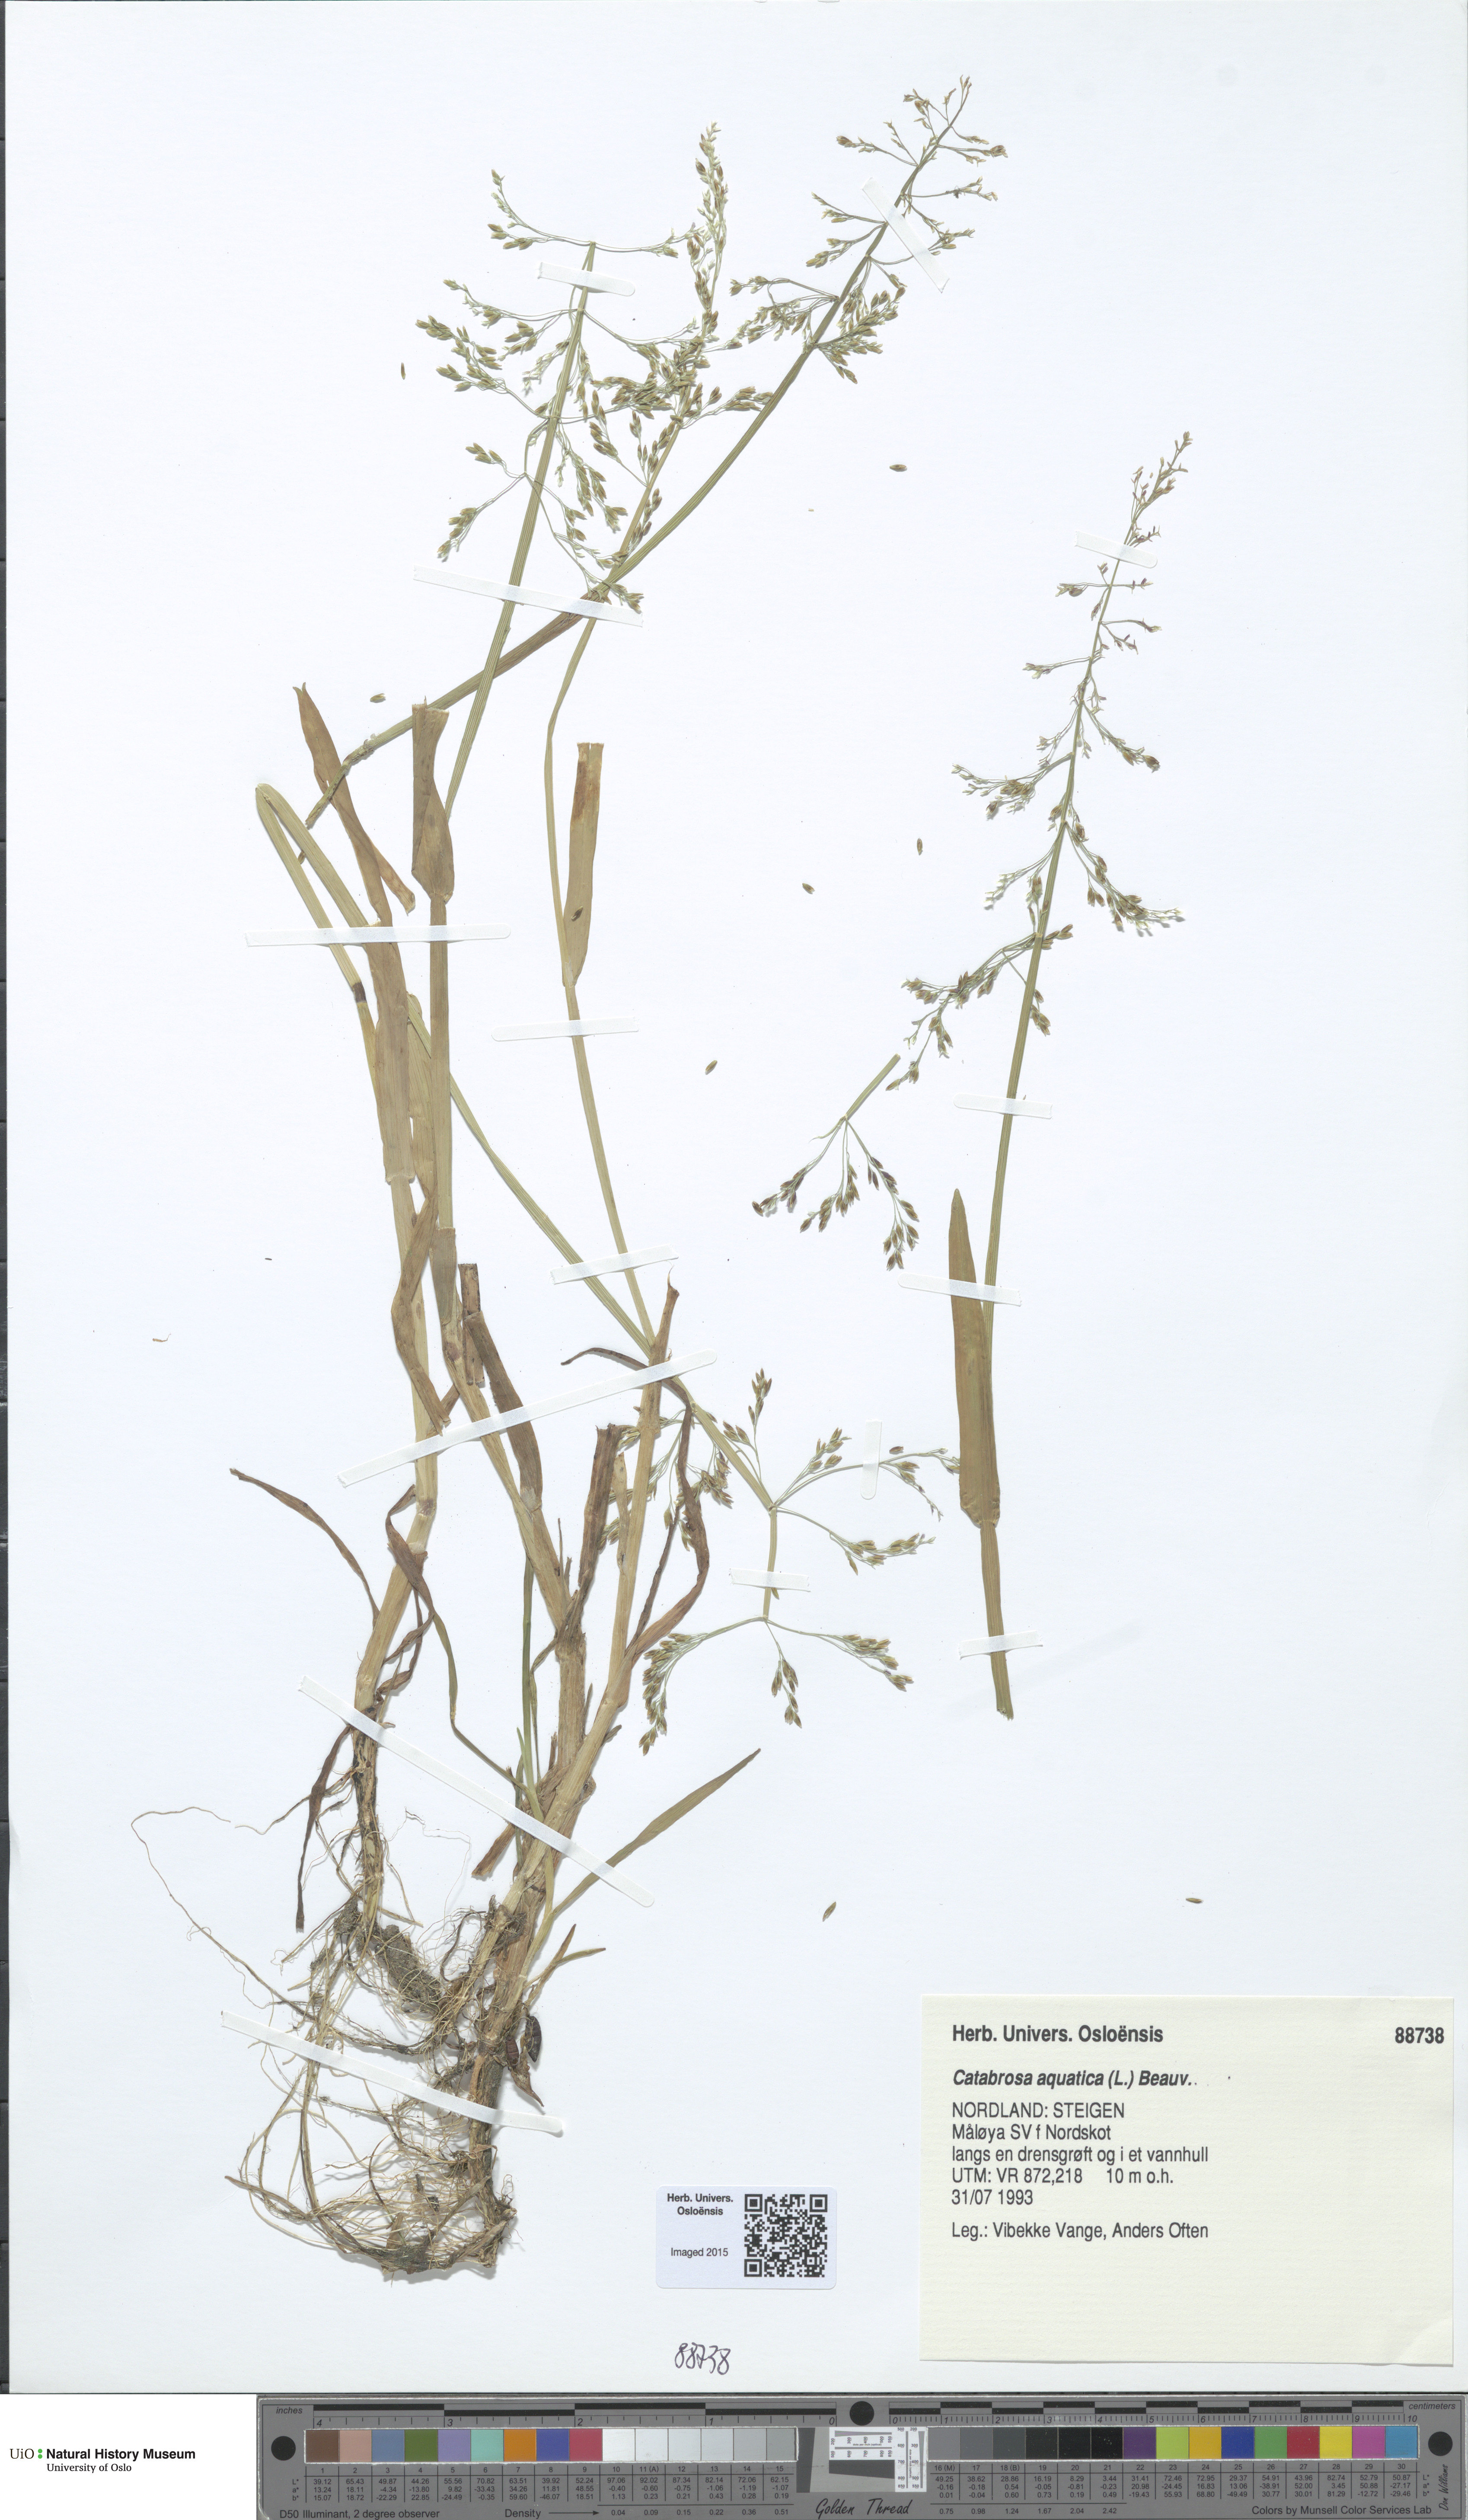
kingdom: Plantae
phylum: Tracheophyta
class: Liliopsida
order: Poales
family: Poaceae
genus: Catabrosa
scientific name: Catabrosa aquatica
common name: Whorl-grass
